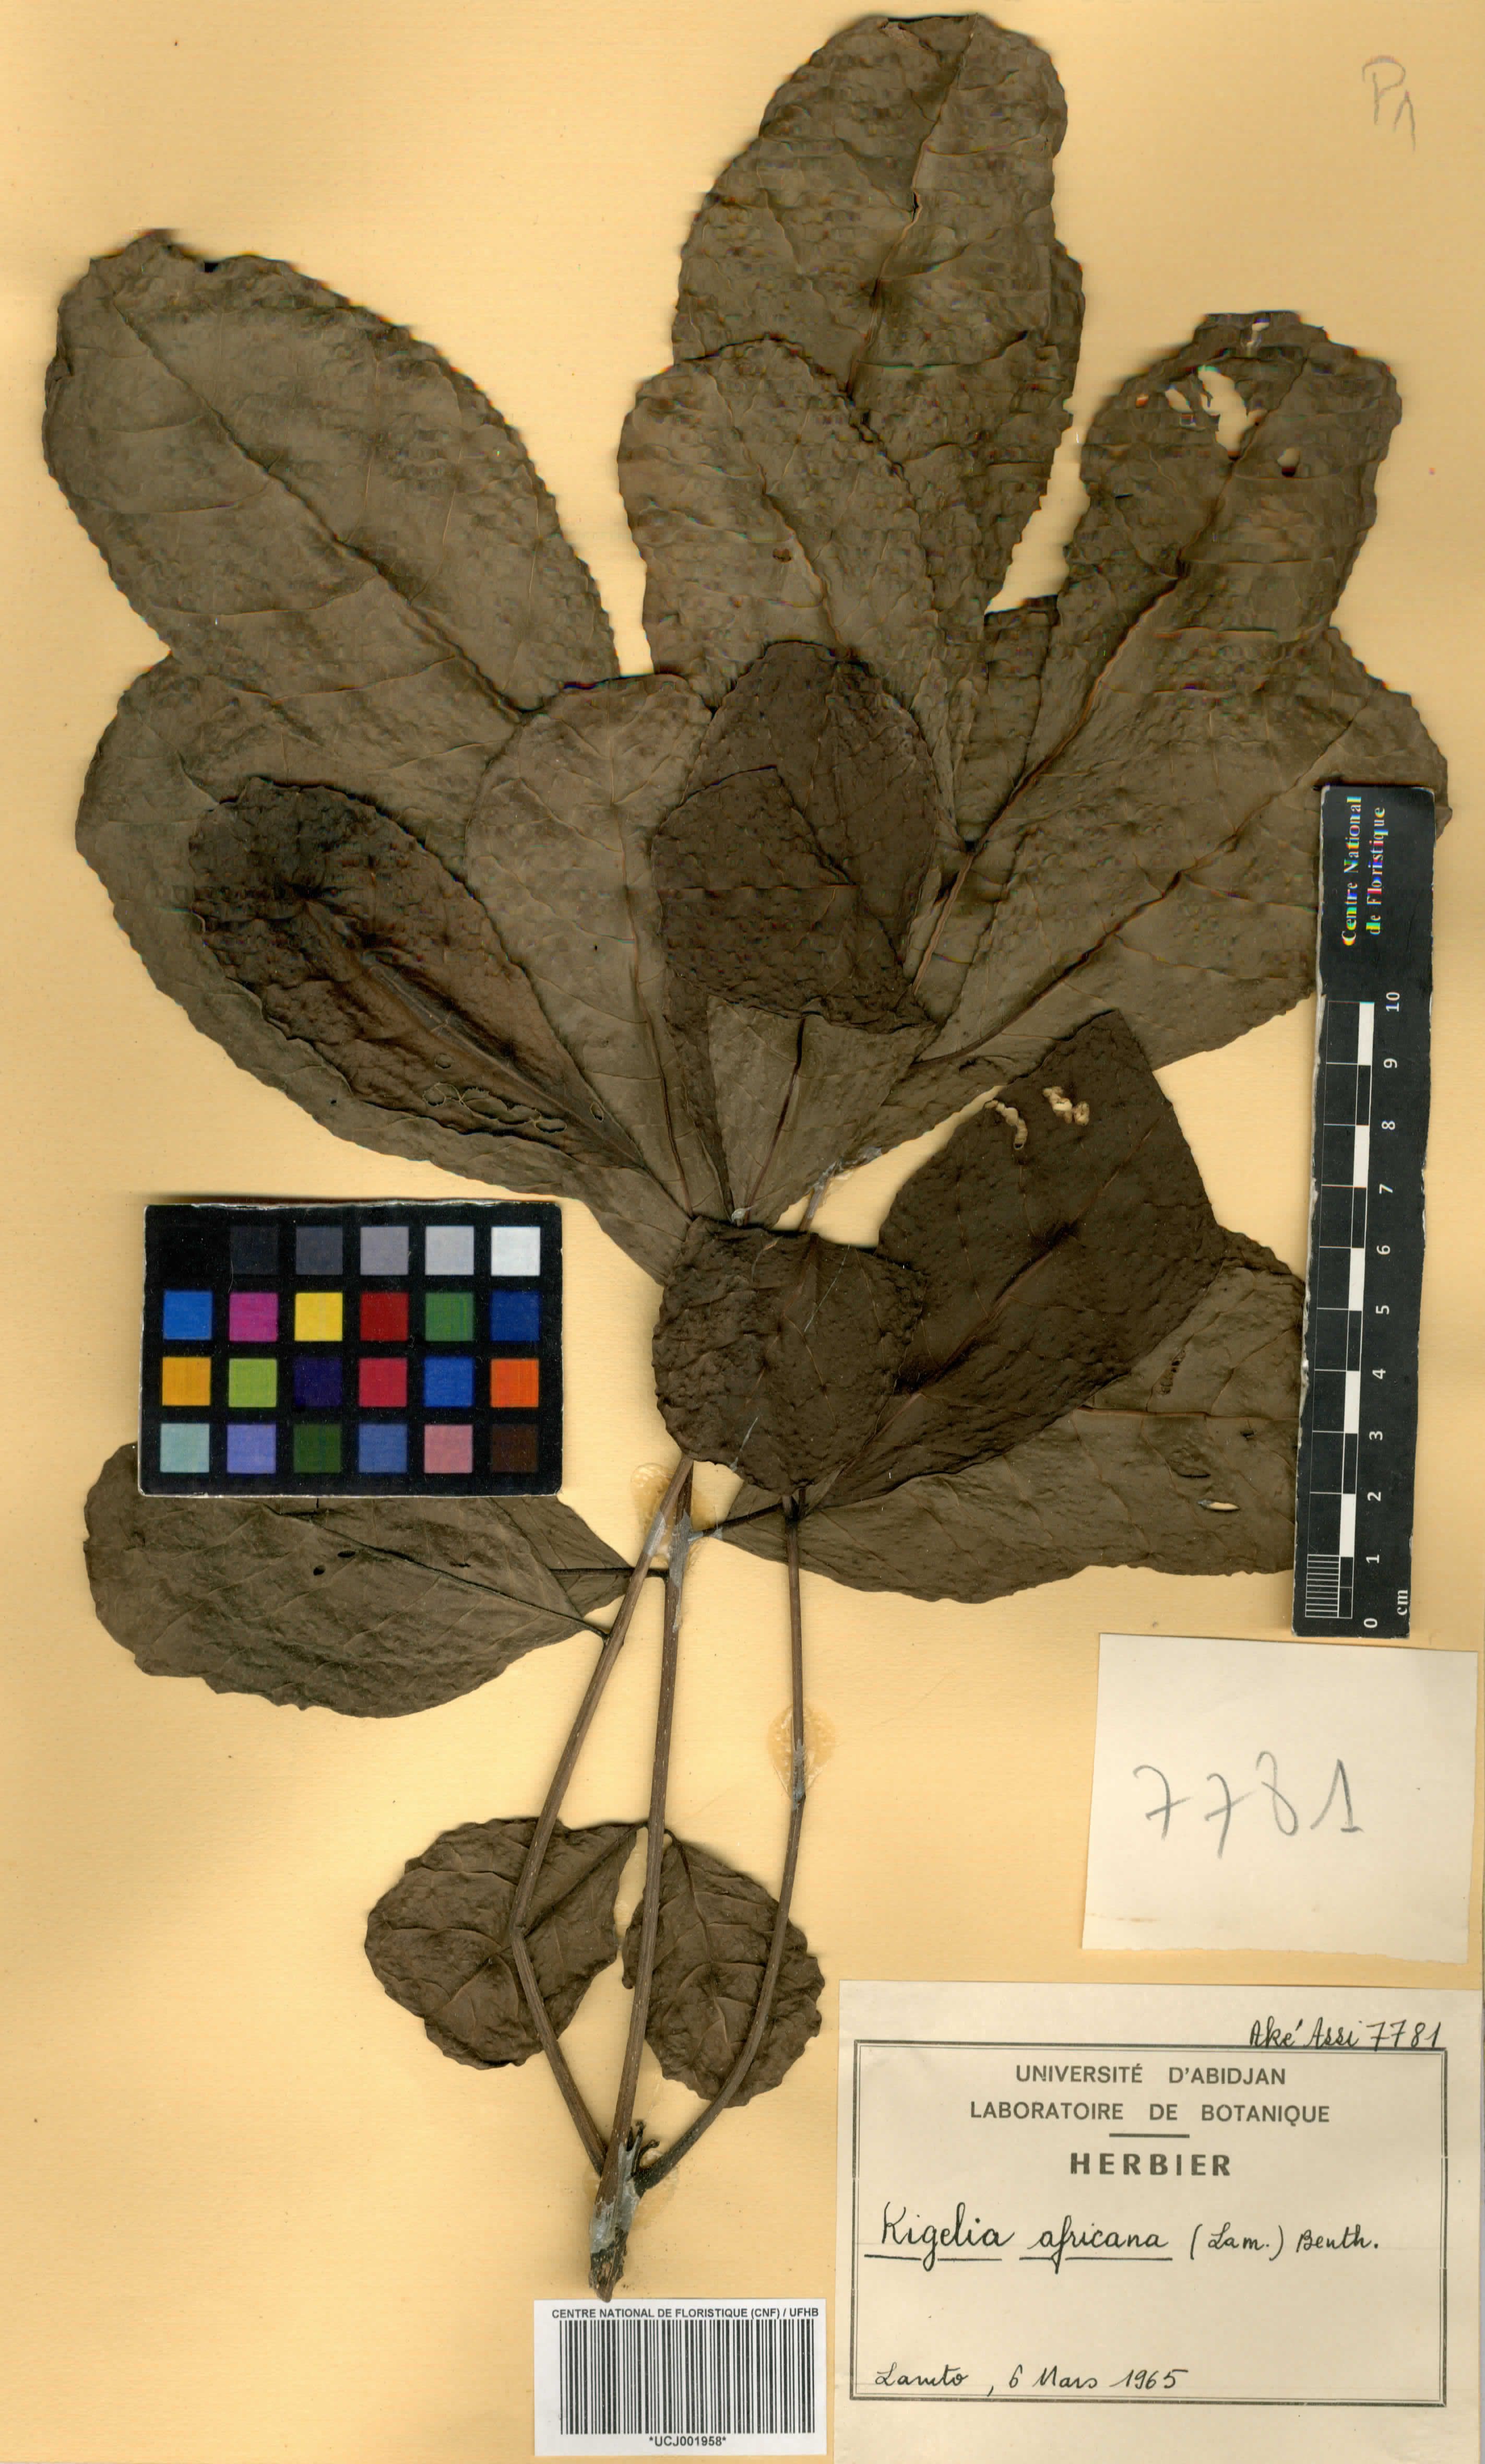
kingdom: Plantae
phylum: Tracheophyta
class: Magnoliopsida
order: Lamiales
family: Bignoniaceae
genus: Kigelia
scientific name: Kigelia africana
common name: Sausage tree
